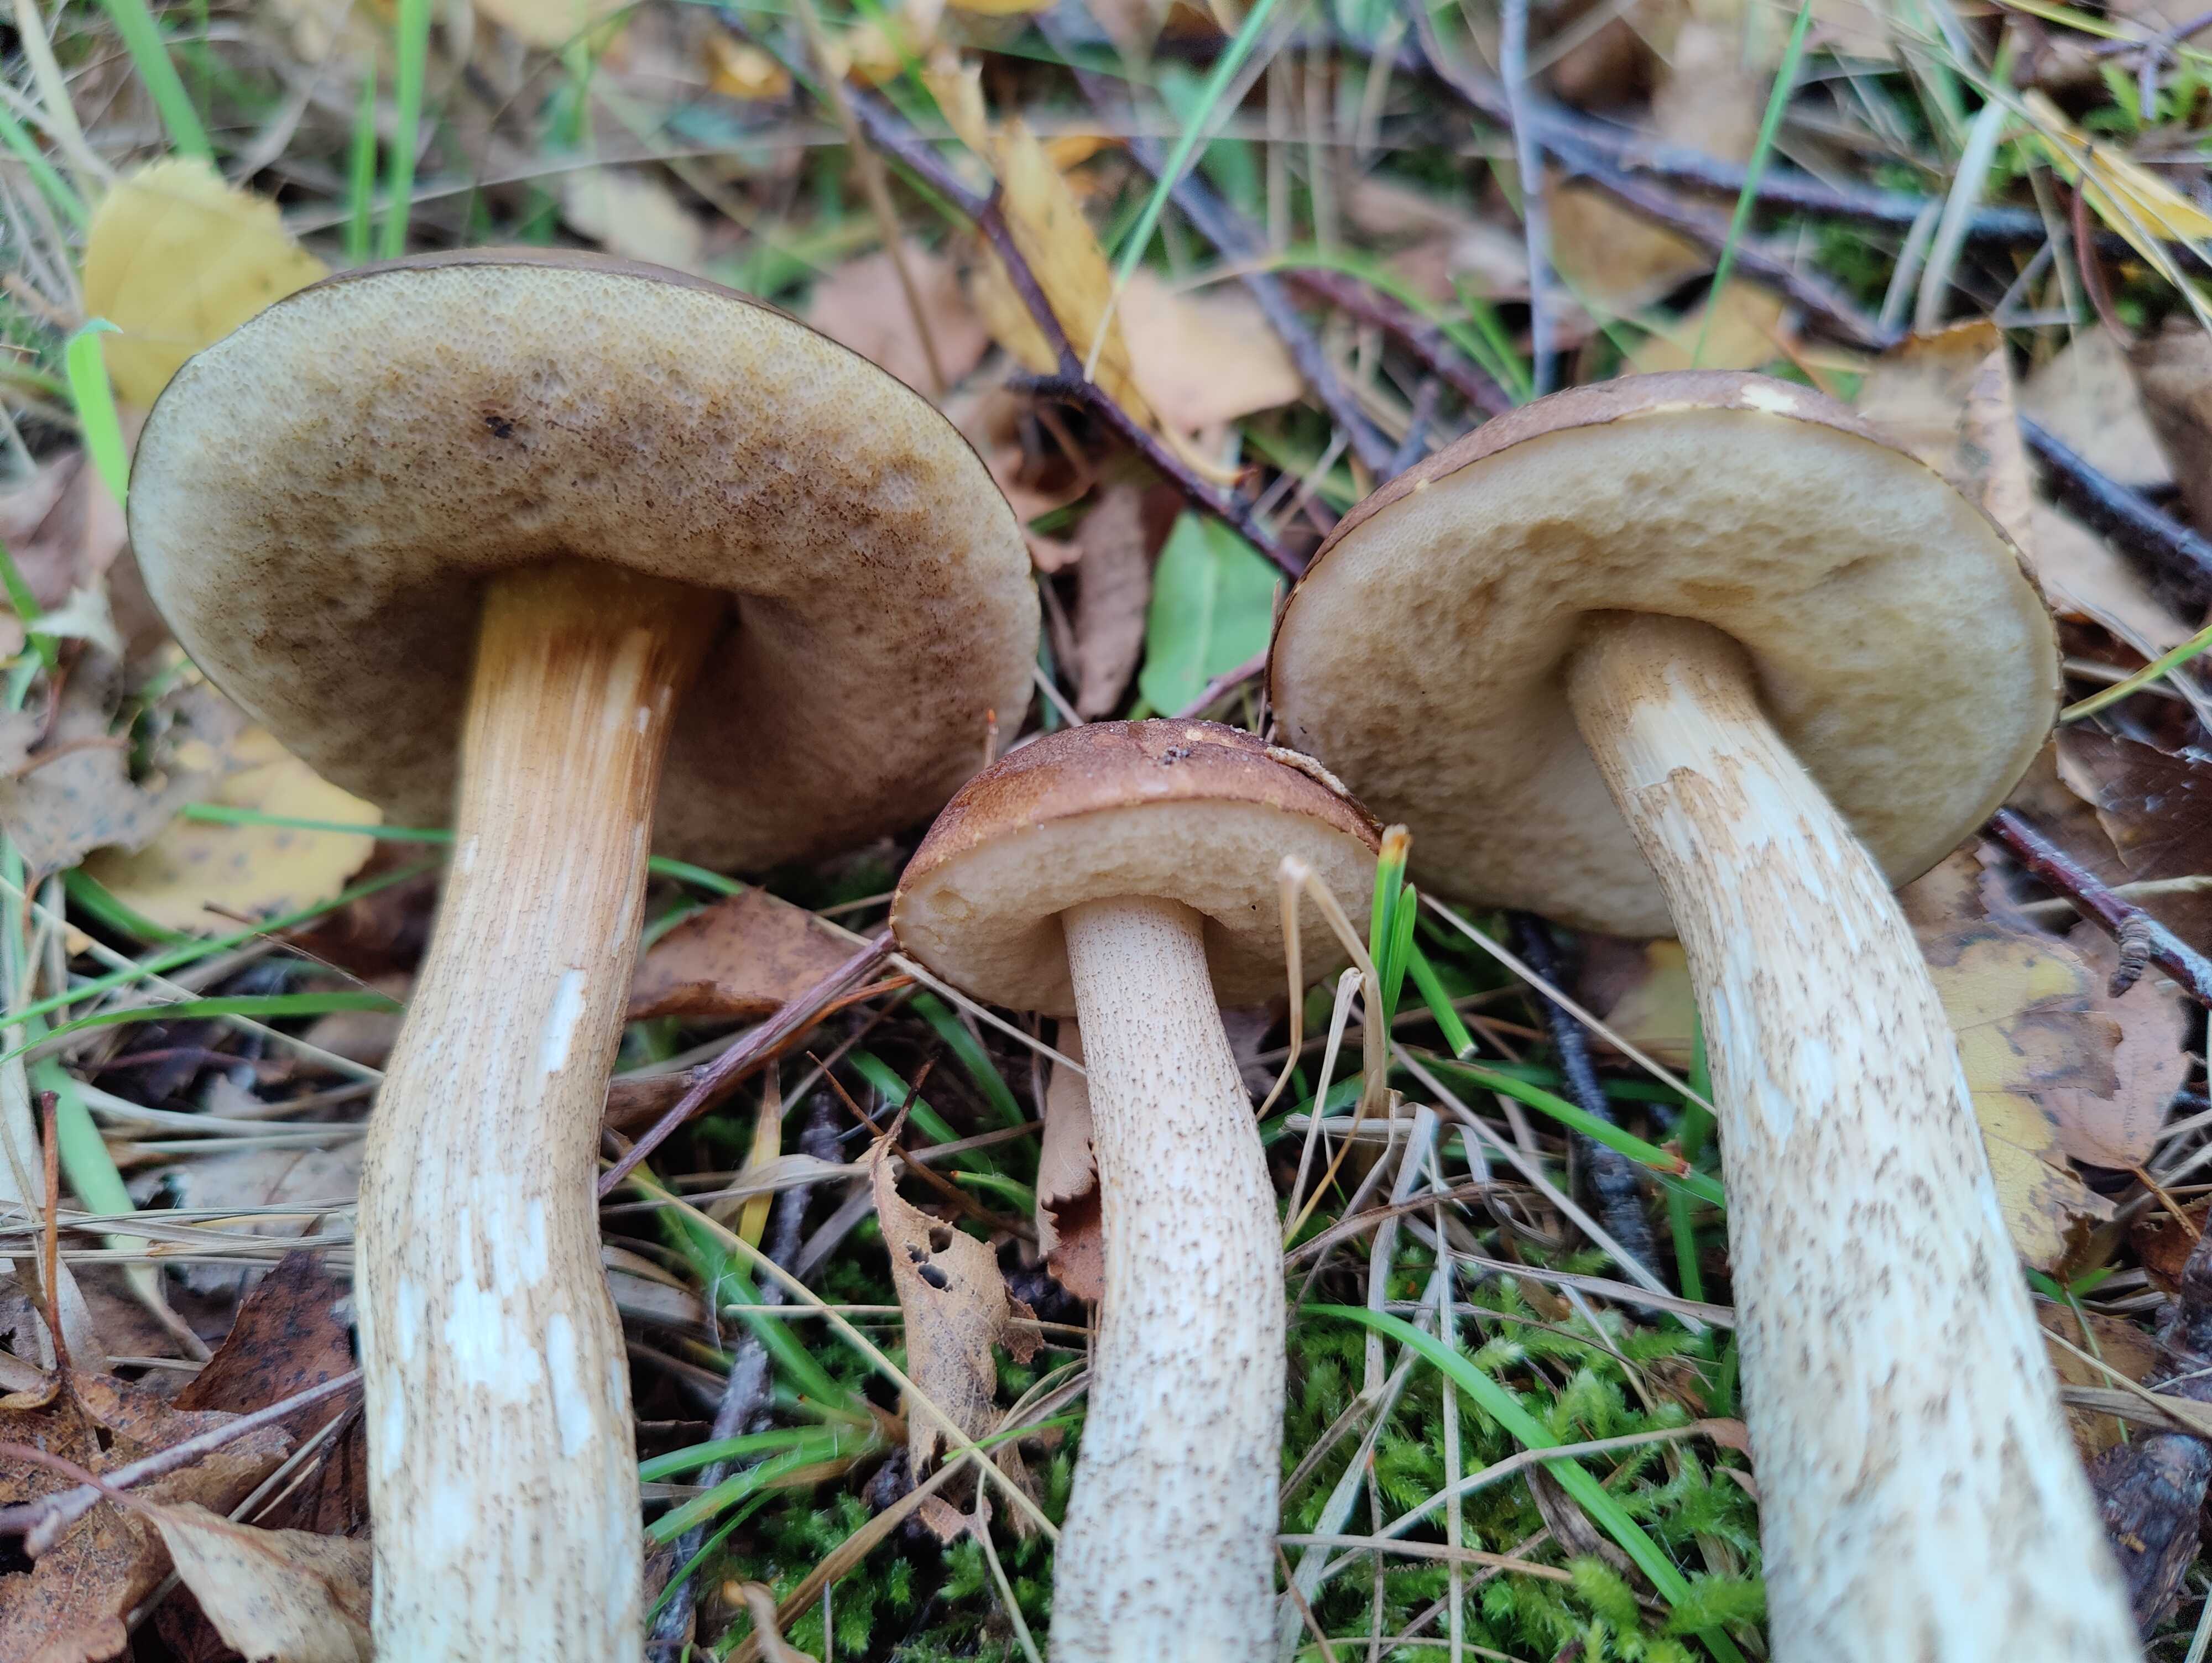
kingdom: Fungi
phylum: Basidiomycota
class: Agaricomycetes
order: Boletales
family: Boletaceae
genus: Leccinum
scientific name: Leccinum scabrum
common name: brun skælrørhat
